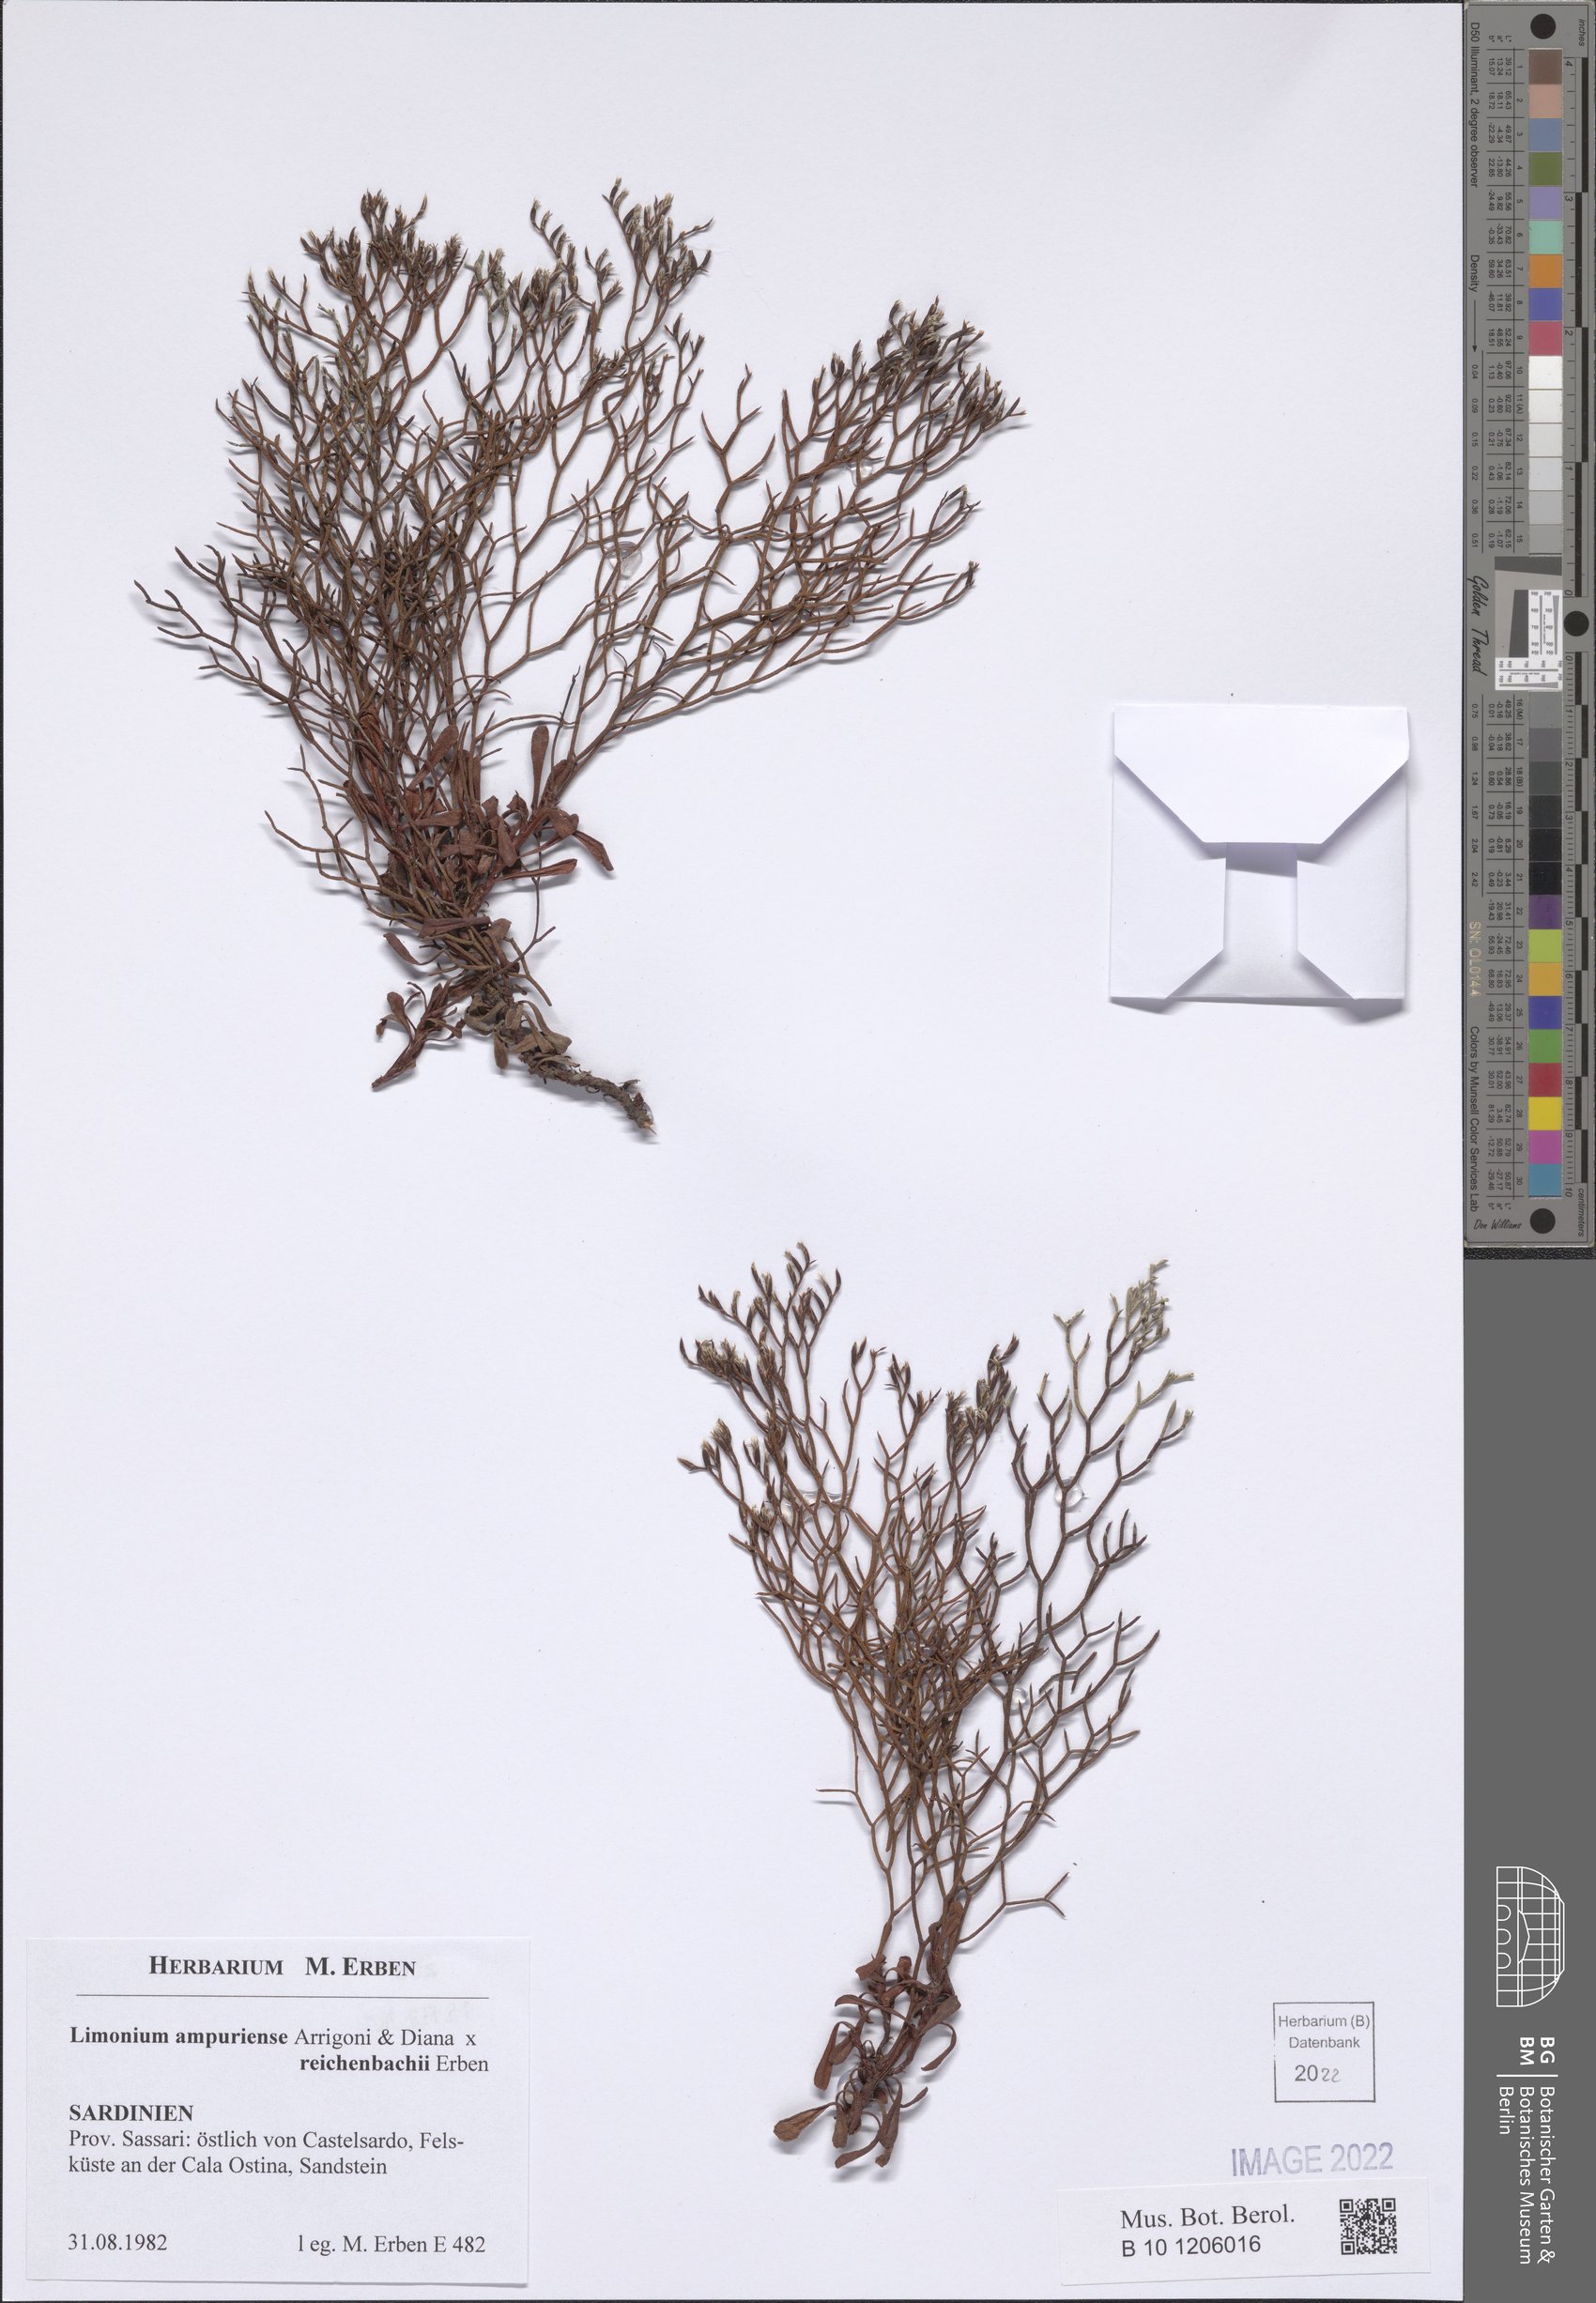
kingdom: Plantae
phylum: Tracheophyta
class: Magnoliopsida
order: Caryophyllales
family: Plumbaginaceae
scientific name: Plumbaginaceae
